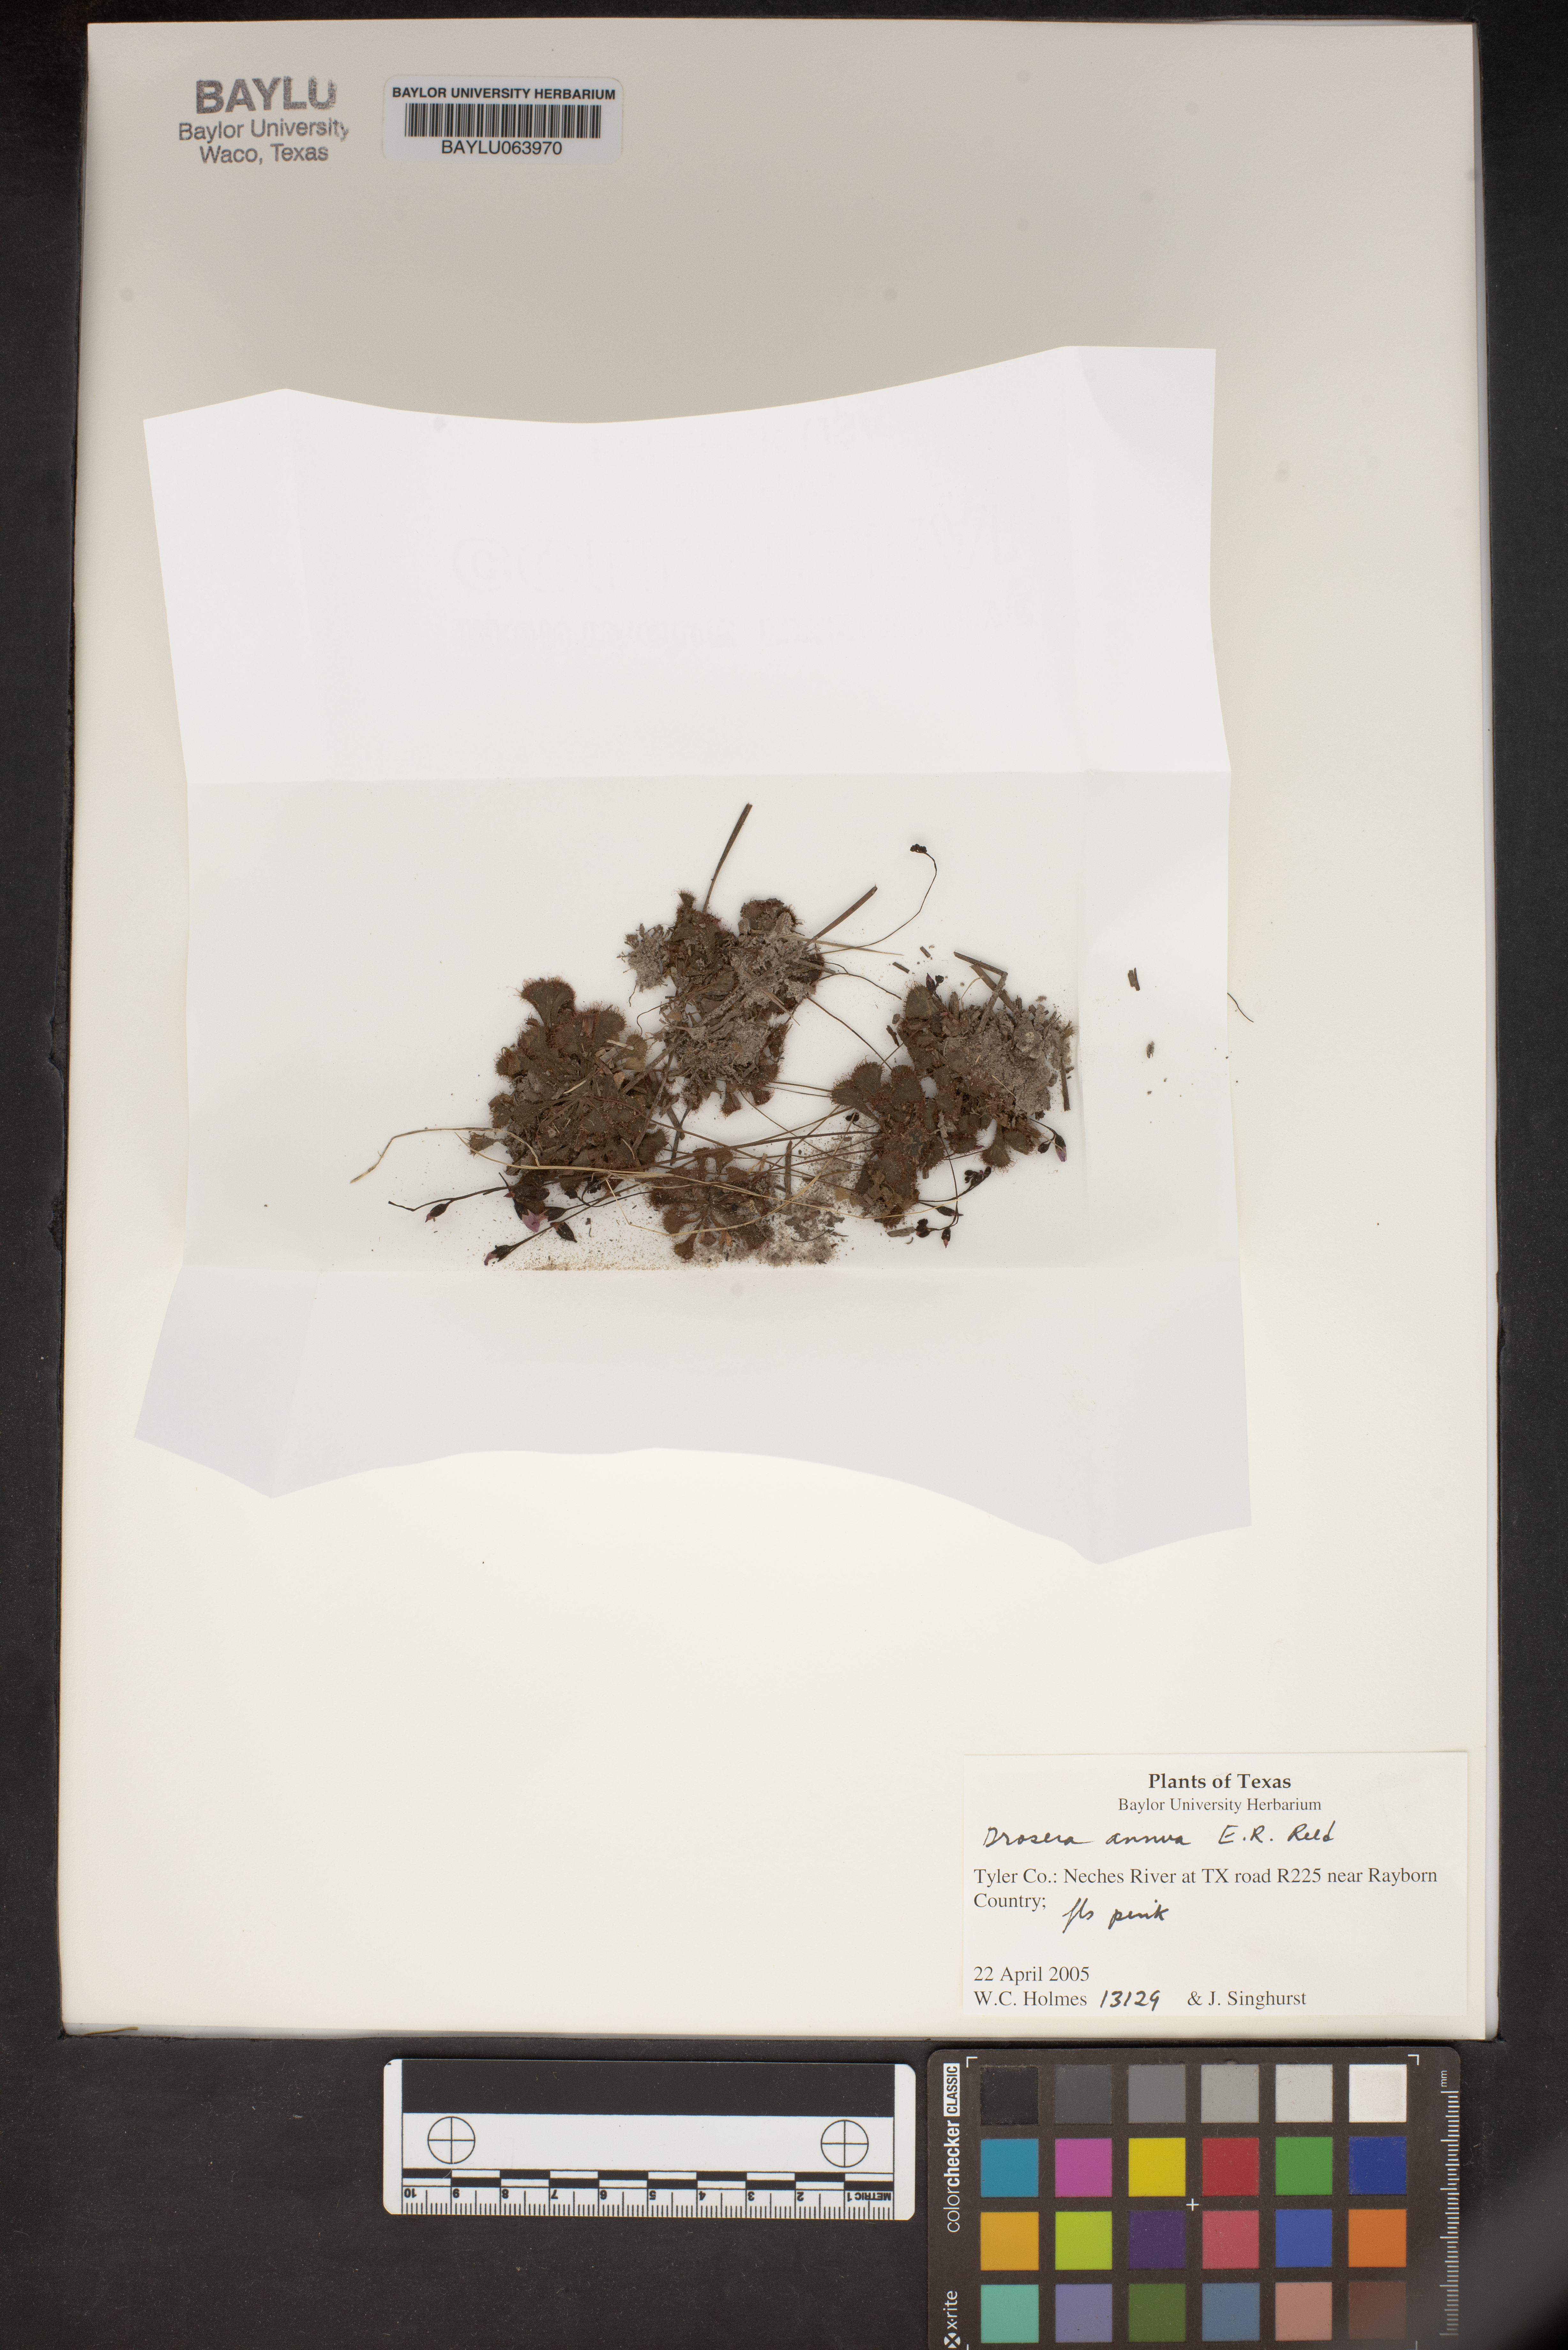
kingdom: Plantae
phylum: Tracheophyta
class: Magnoliopsida
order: Caryophyllales
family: Droseraceae
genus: Drosera
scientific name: Drosera brevifolia
